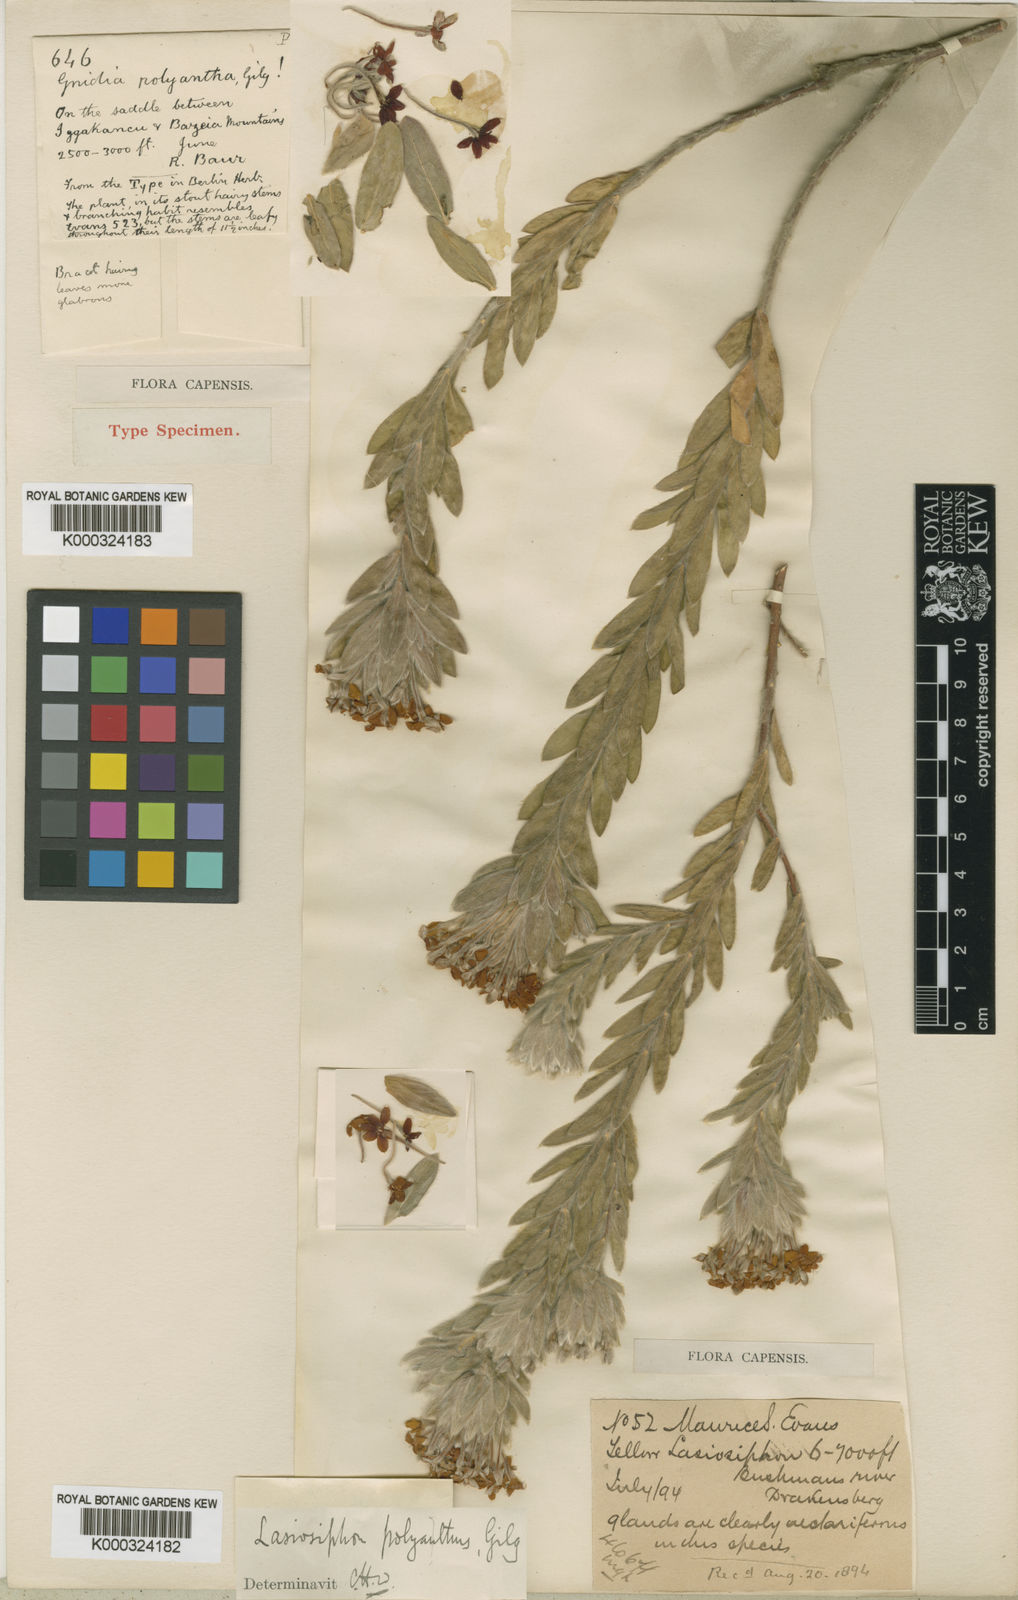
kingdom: Plantae
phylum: Tracheophyta
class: Magnoliopsida
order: Malvales
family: Thymelaeaceae
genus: Gnidia
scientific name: Gnidia polyantha
